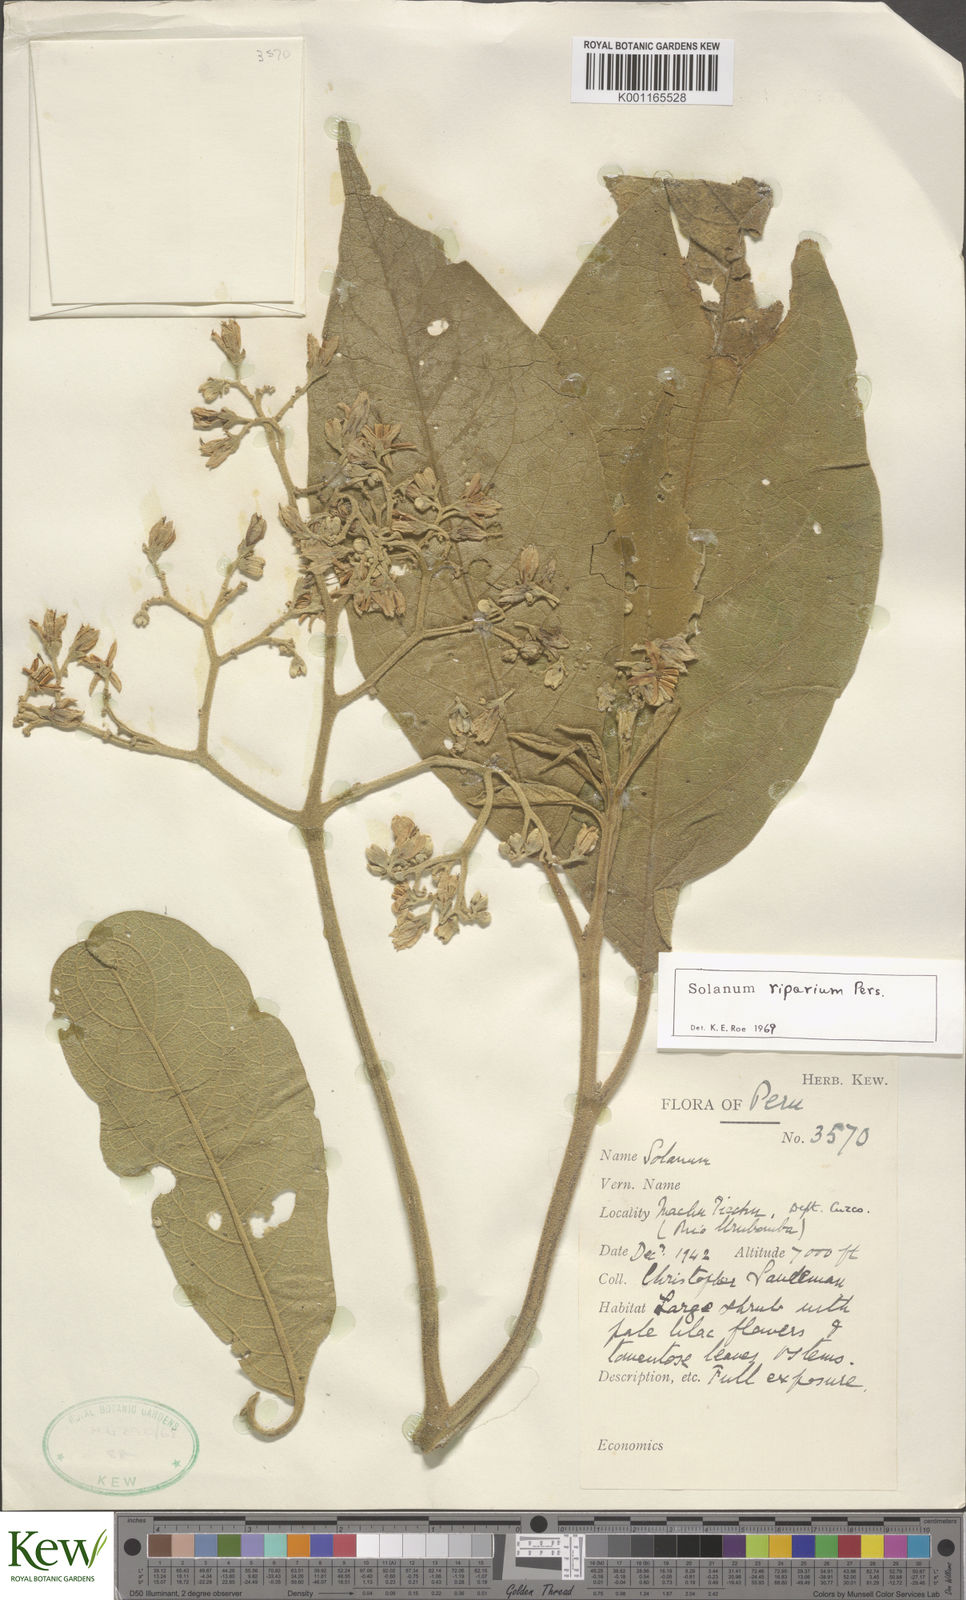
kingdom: Plantae
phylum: Tracheophyta
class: Magnoliopsida
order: Solanales
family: Solanaceae
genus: Solanum
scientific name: Solanum riparium
